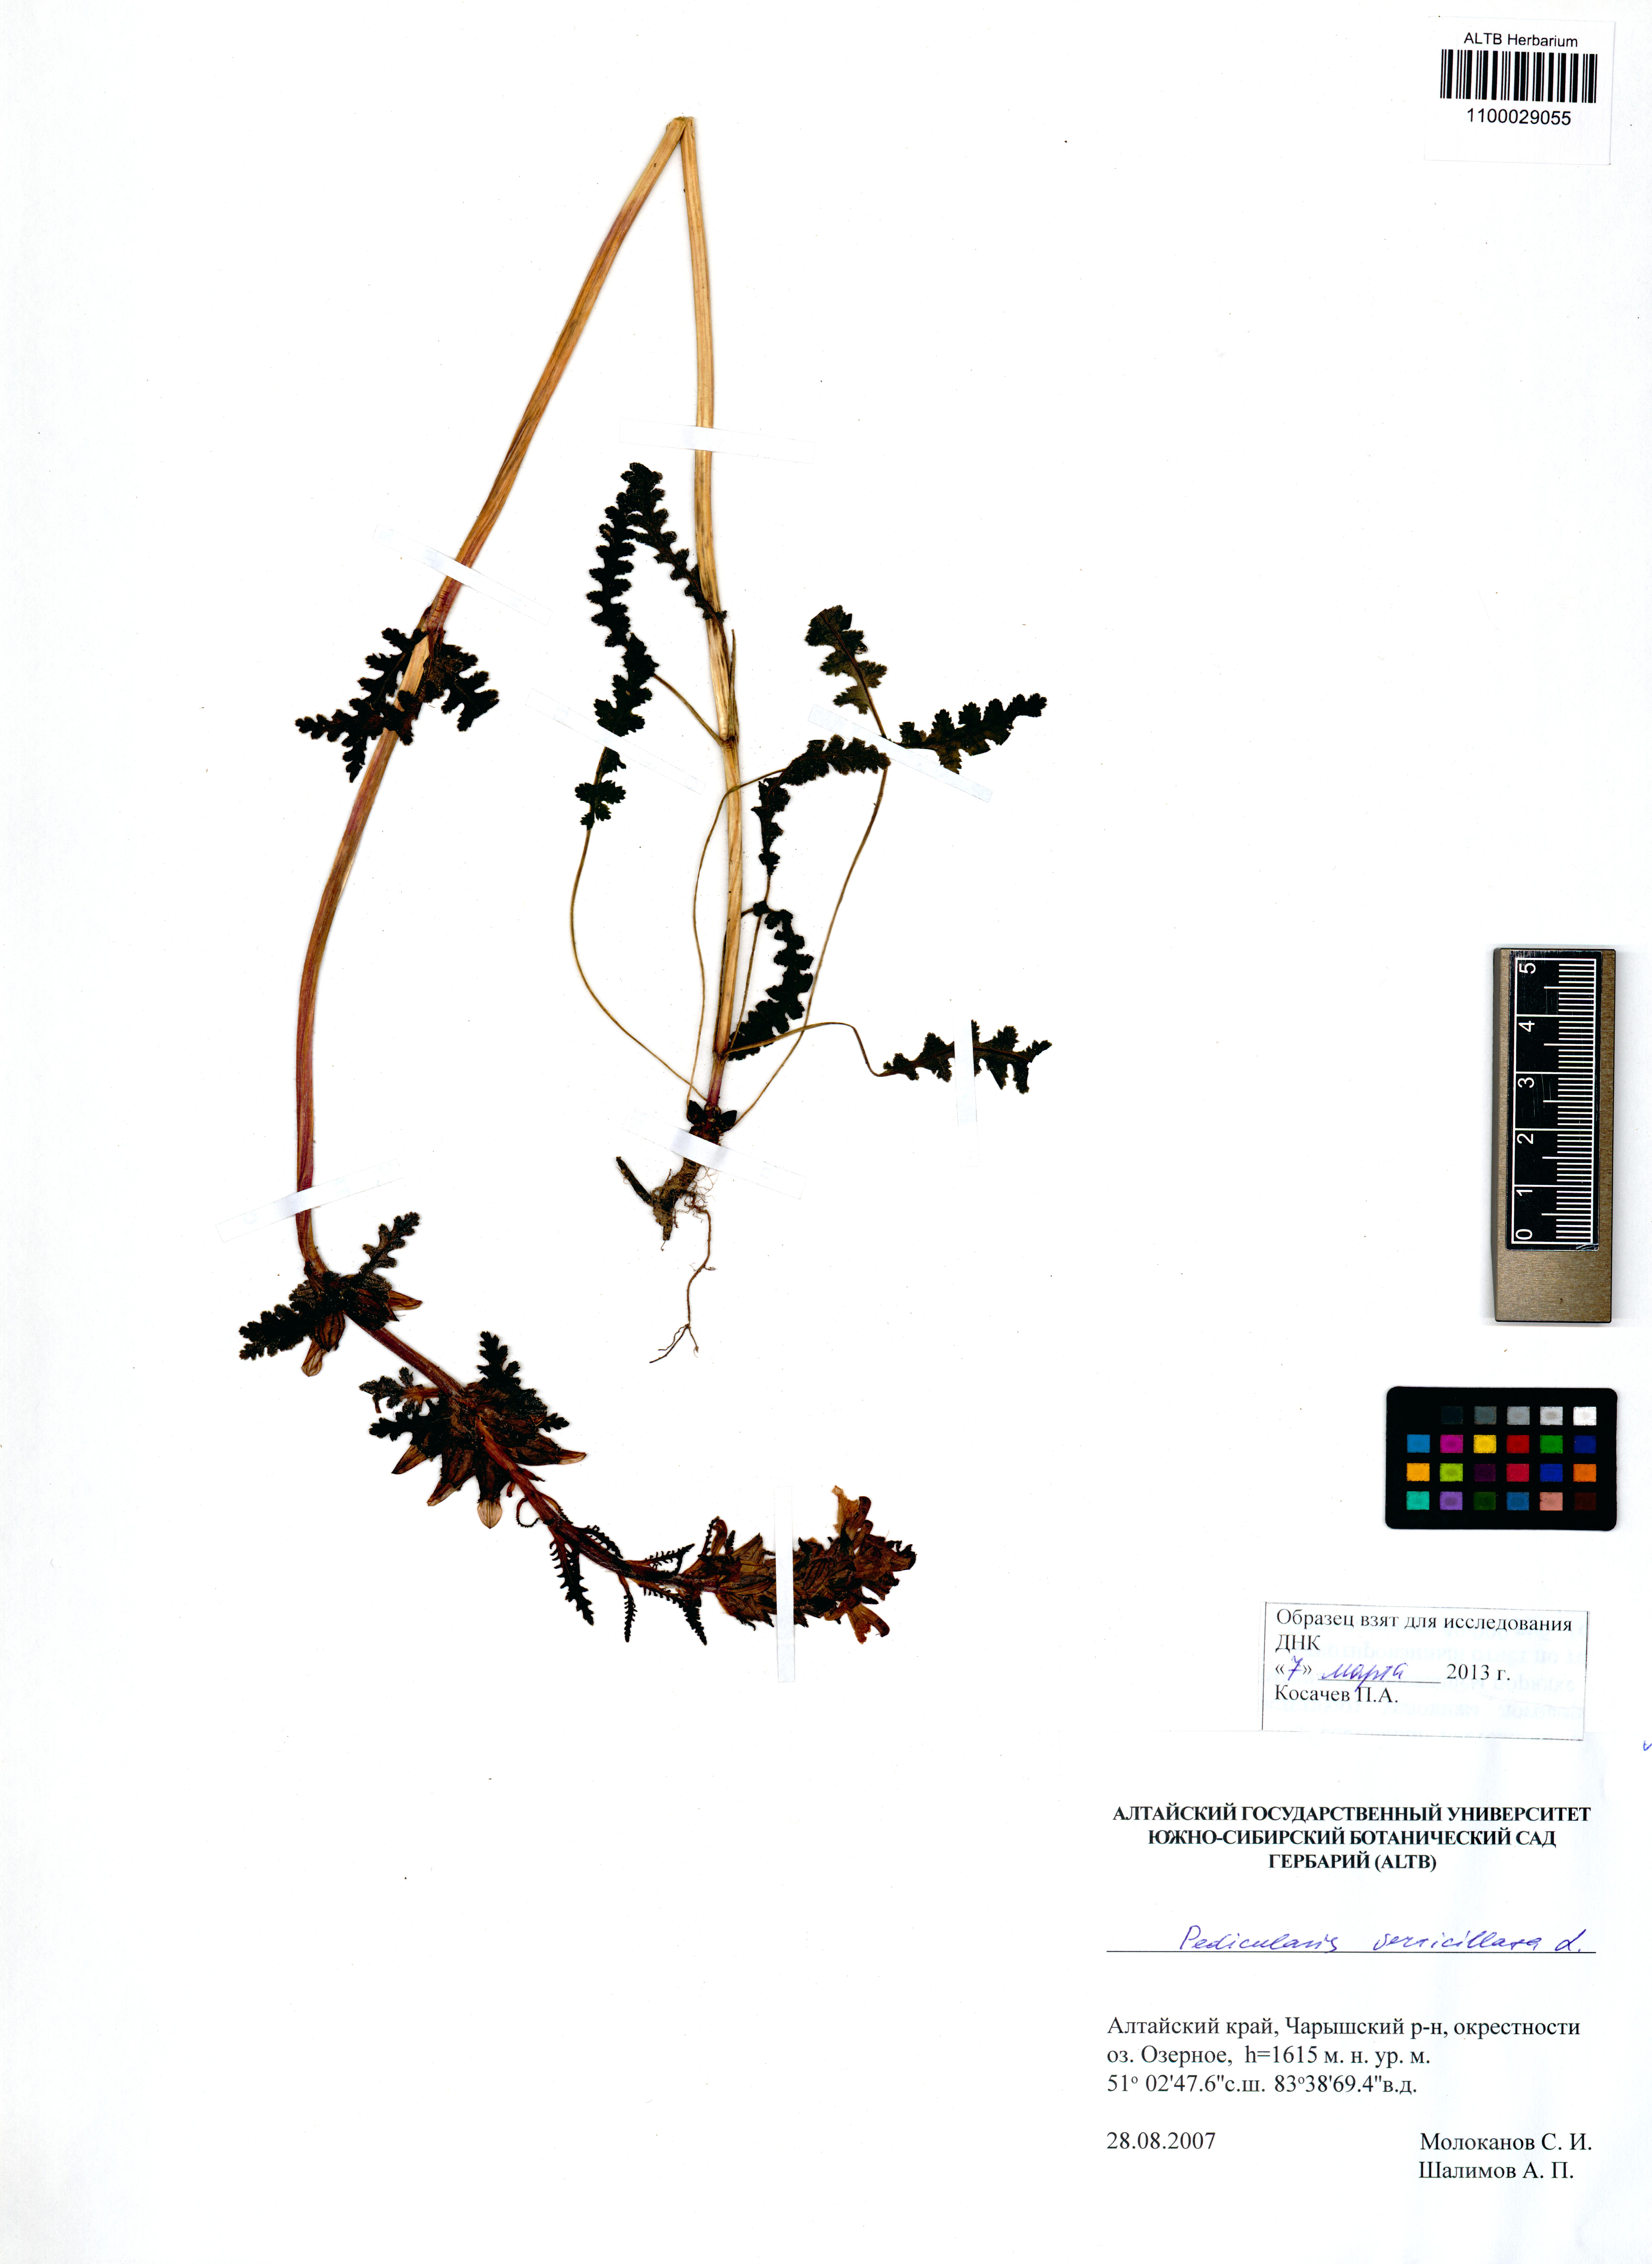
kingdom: Plantae
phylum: Tracheophyta
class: Magnoliopsida
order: Lamiales
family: Orobanchaceae
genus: Pedicularis
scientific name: Pedicularis verticillata
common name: Whorled lousewort
